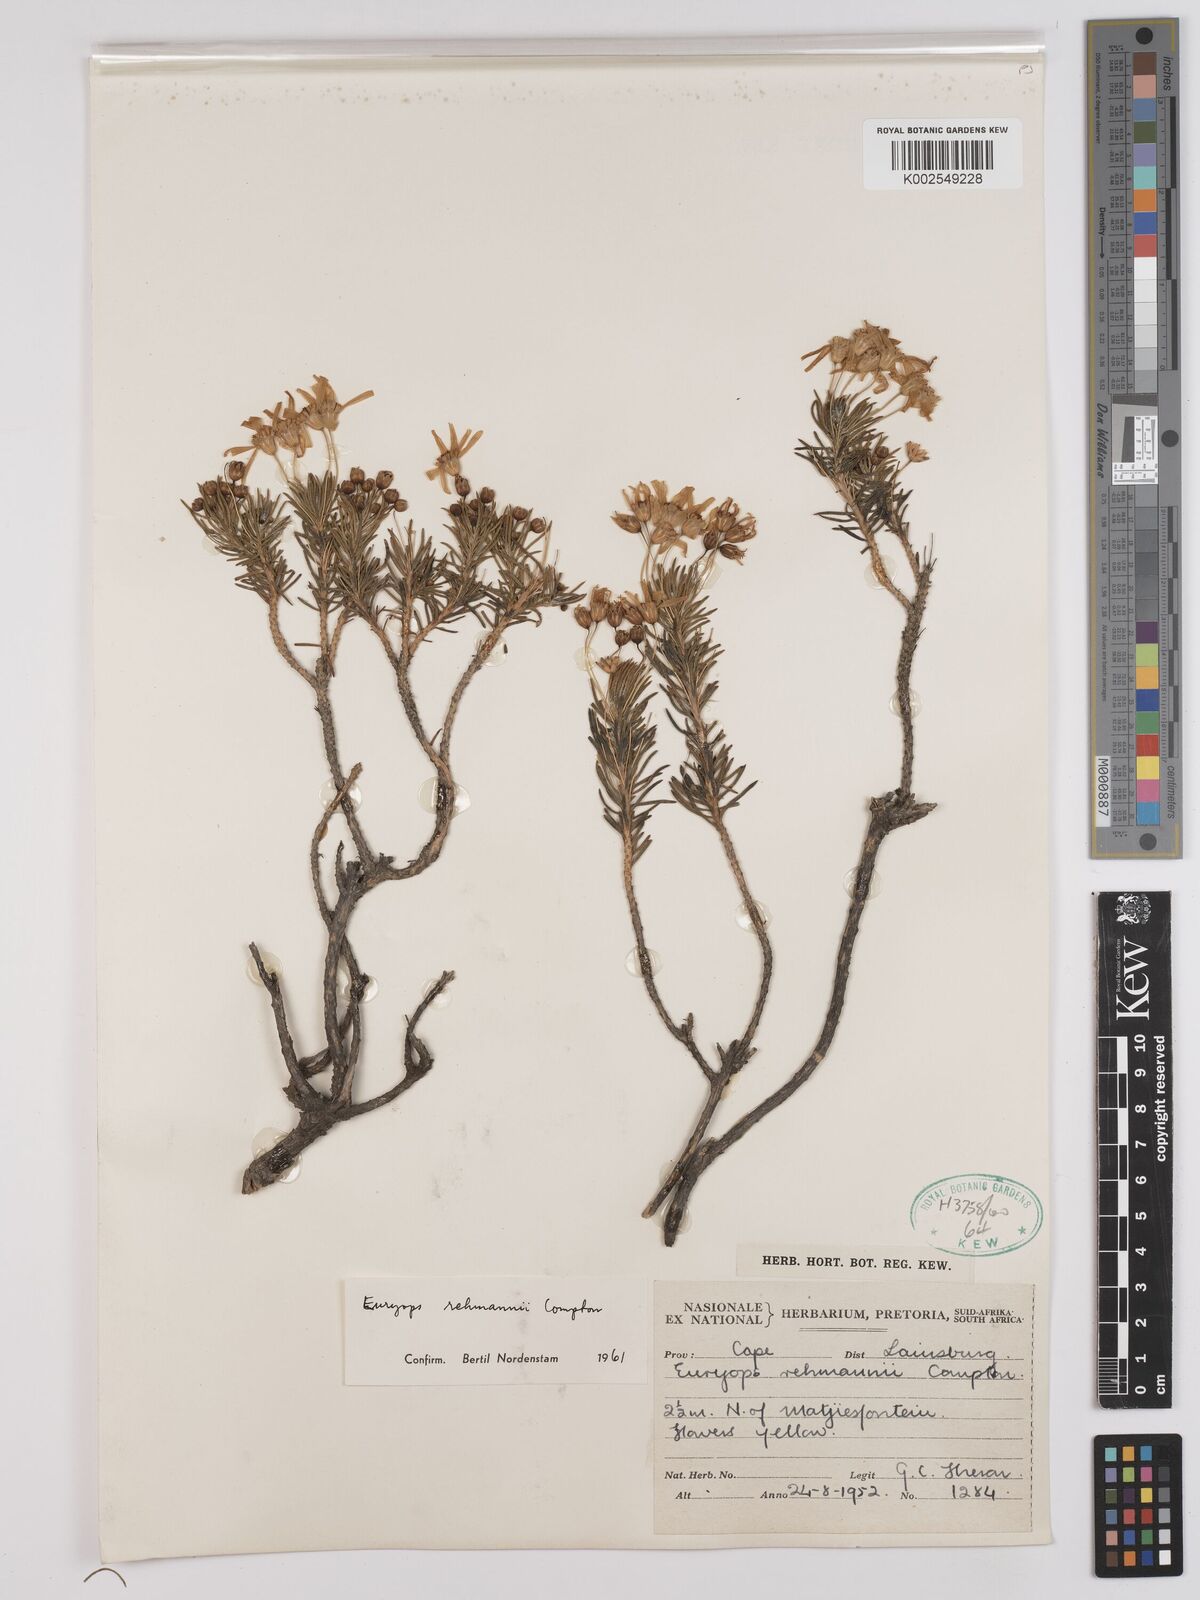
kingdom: Plantae
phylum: Tracheophyta
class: Magnoliopsida
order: Asterales
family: Asteraceae
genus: Euryops
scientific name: Euryops rehmannii
